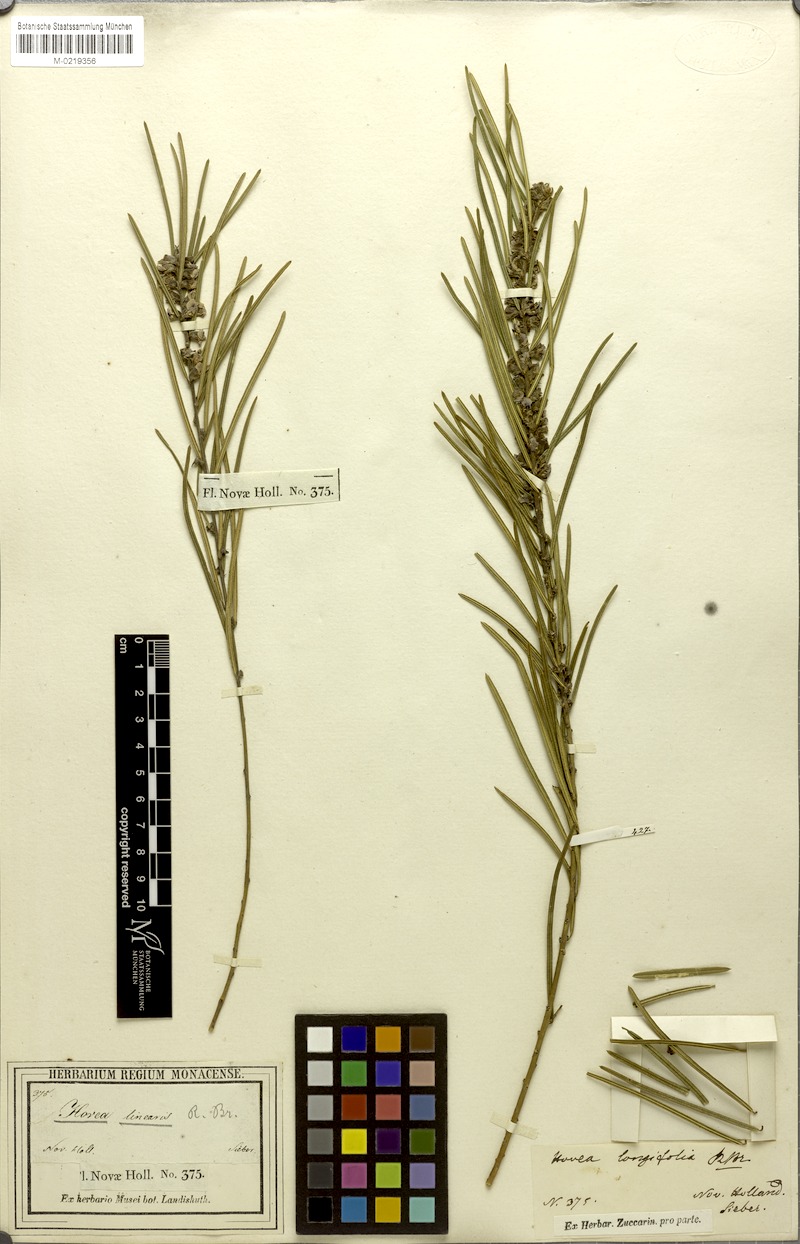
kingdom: Plantae
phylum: Tracheophyta
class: Magnoliopsida
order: Fabales
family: Fabaceae
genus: Hovea
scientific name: Hovea linearis
